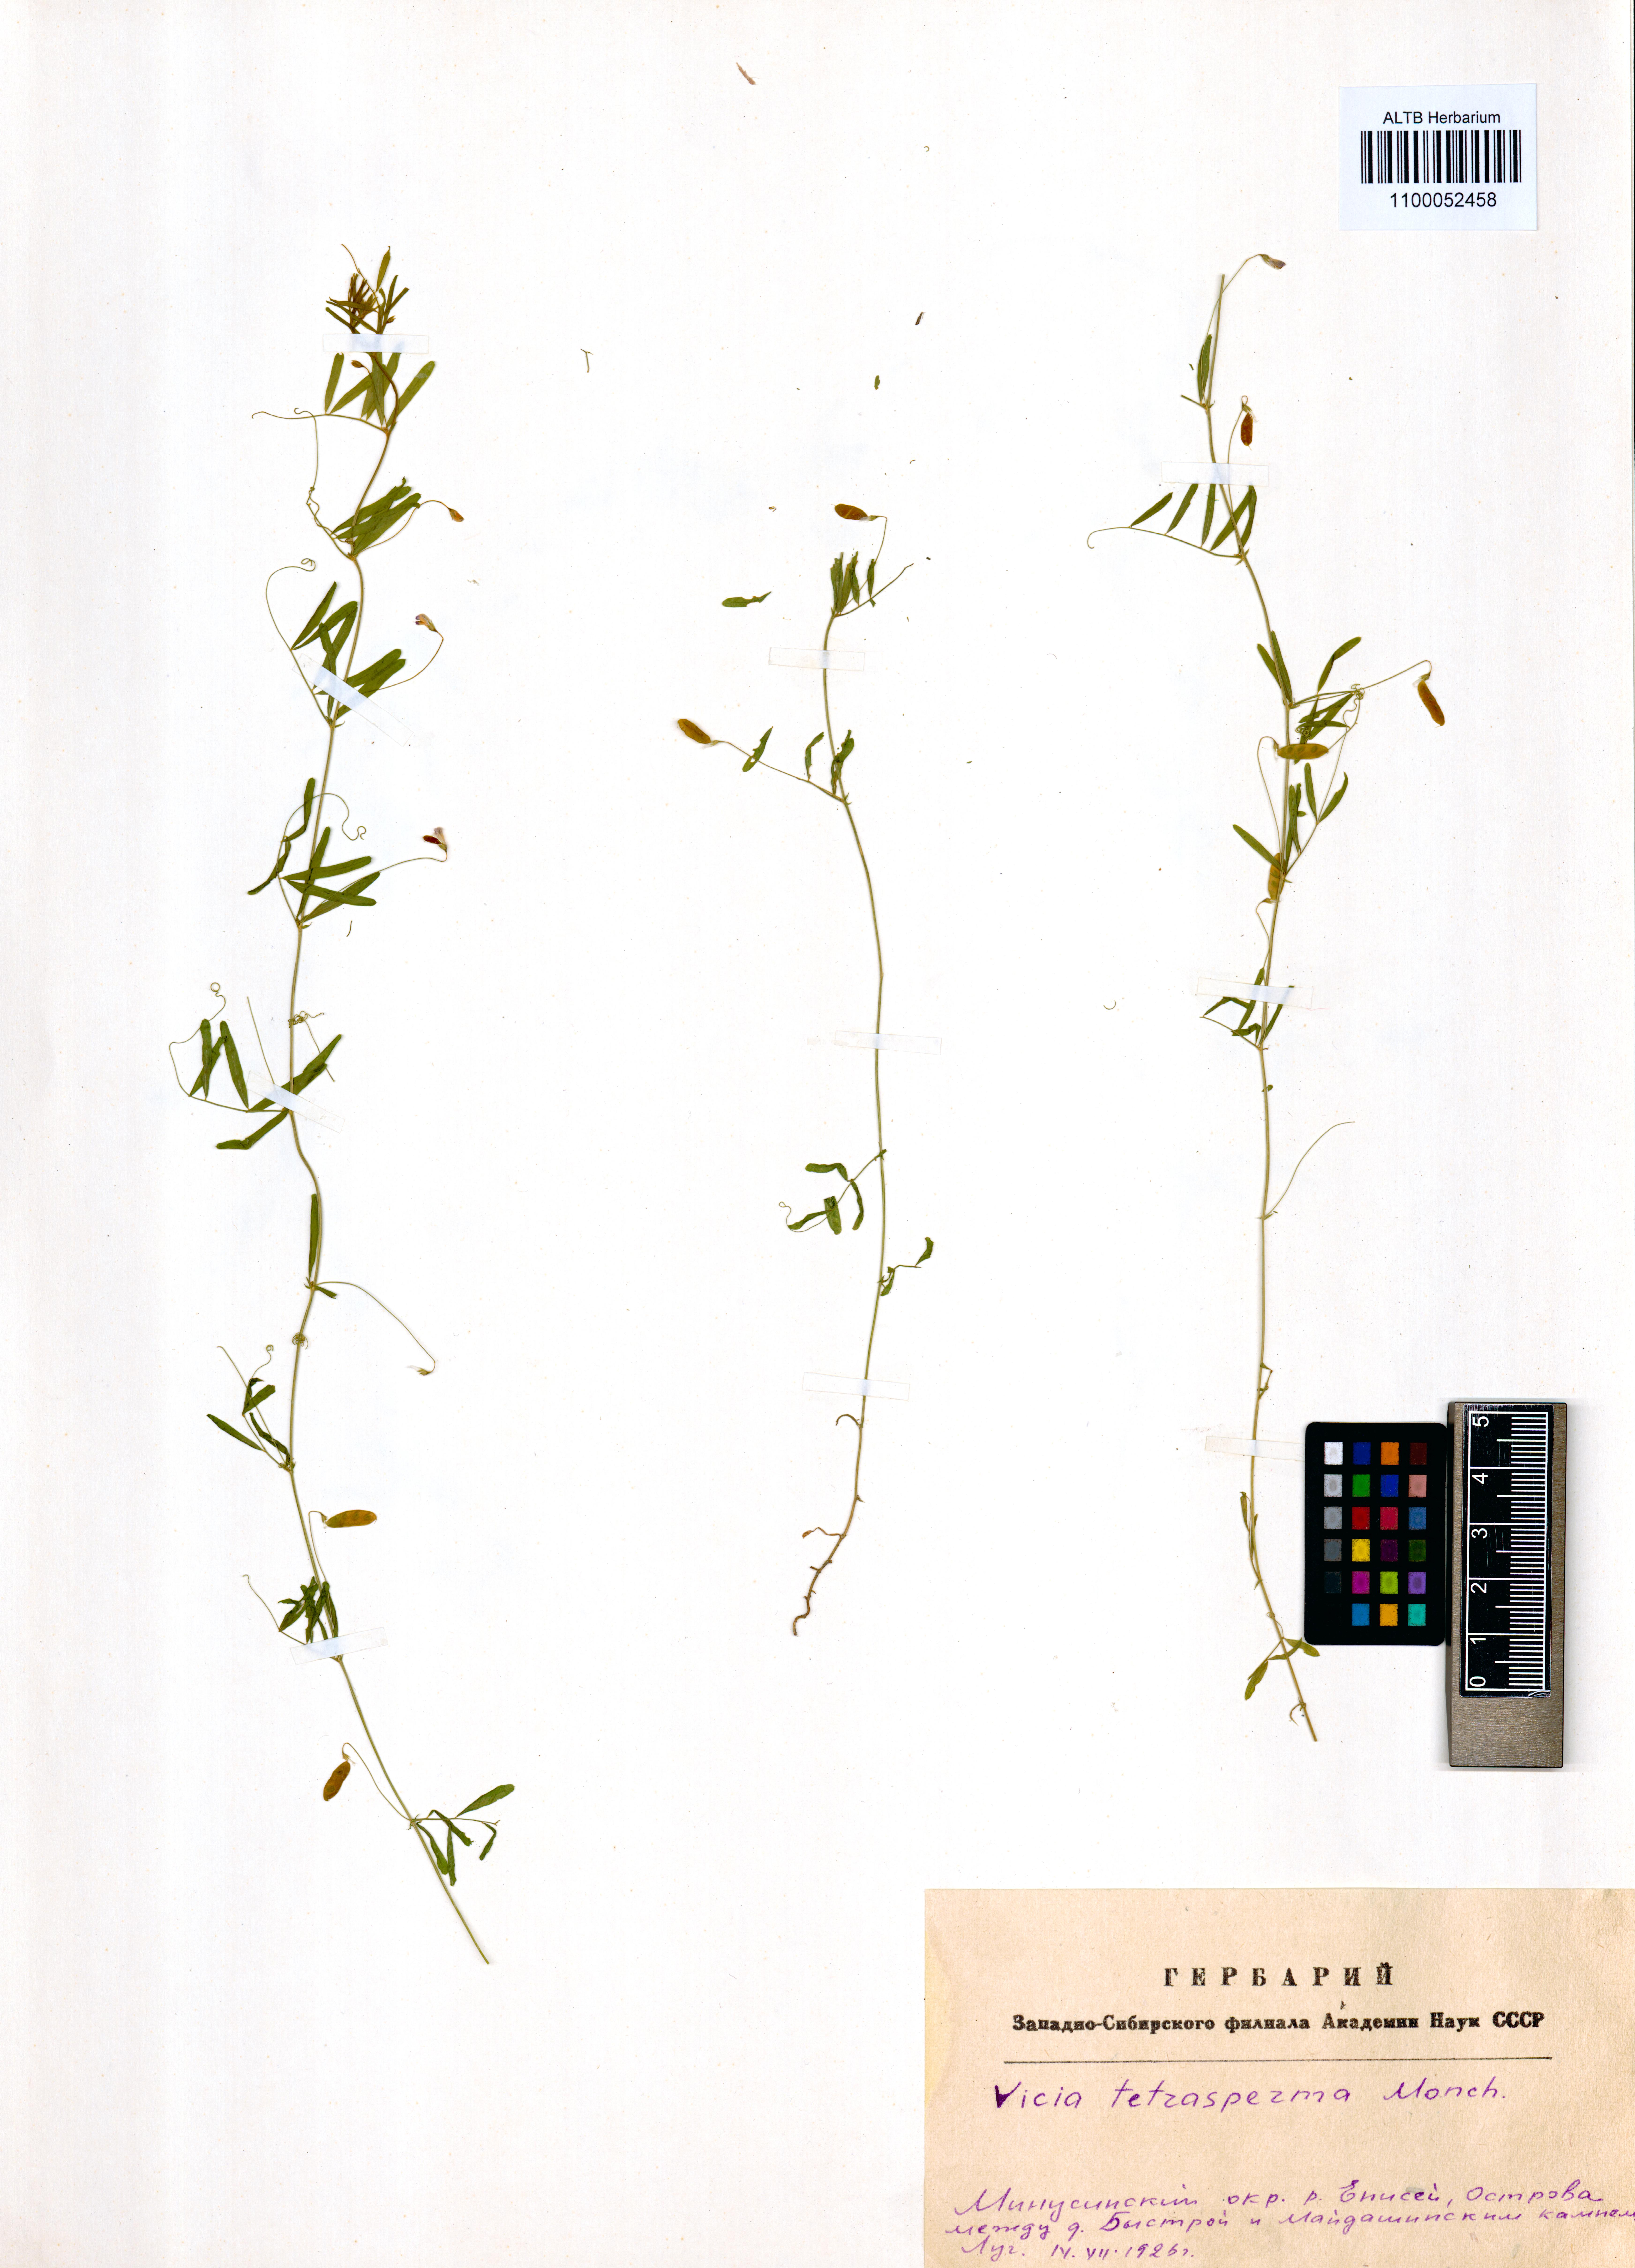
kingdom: Plantae
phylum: Tracheophyta
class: Magnoliopsida
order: Fabales
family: Fabaceae
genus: Vicia
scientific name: Vicia tetrasperma
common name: Smooth tare
